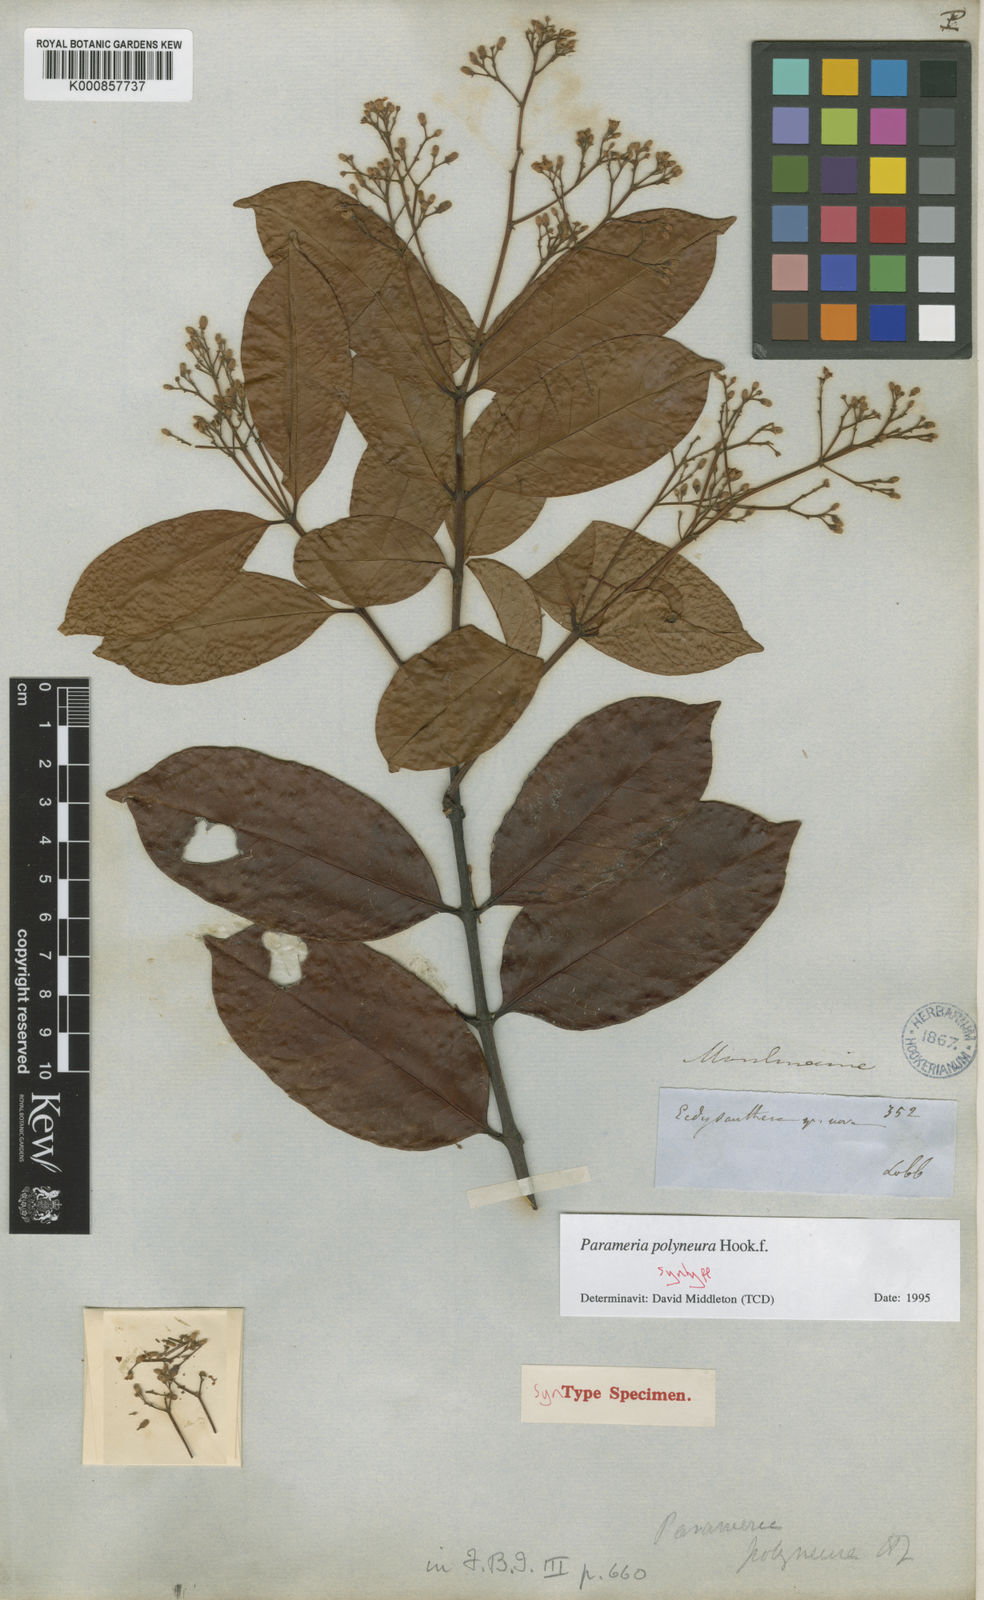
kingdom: Plantae
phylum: Tracheophyta
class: Magnoliopsida
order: Gentianales
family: Apocynaceae
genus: Urceola
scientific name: Urceola polyneura
